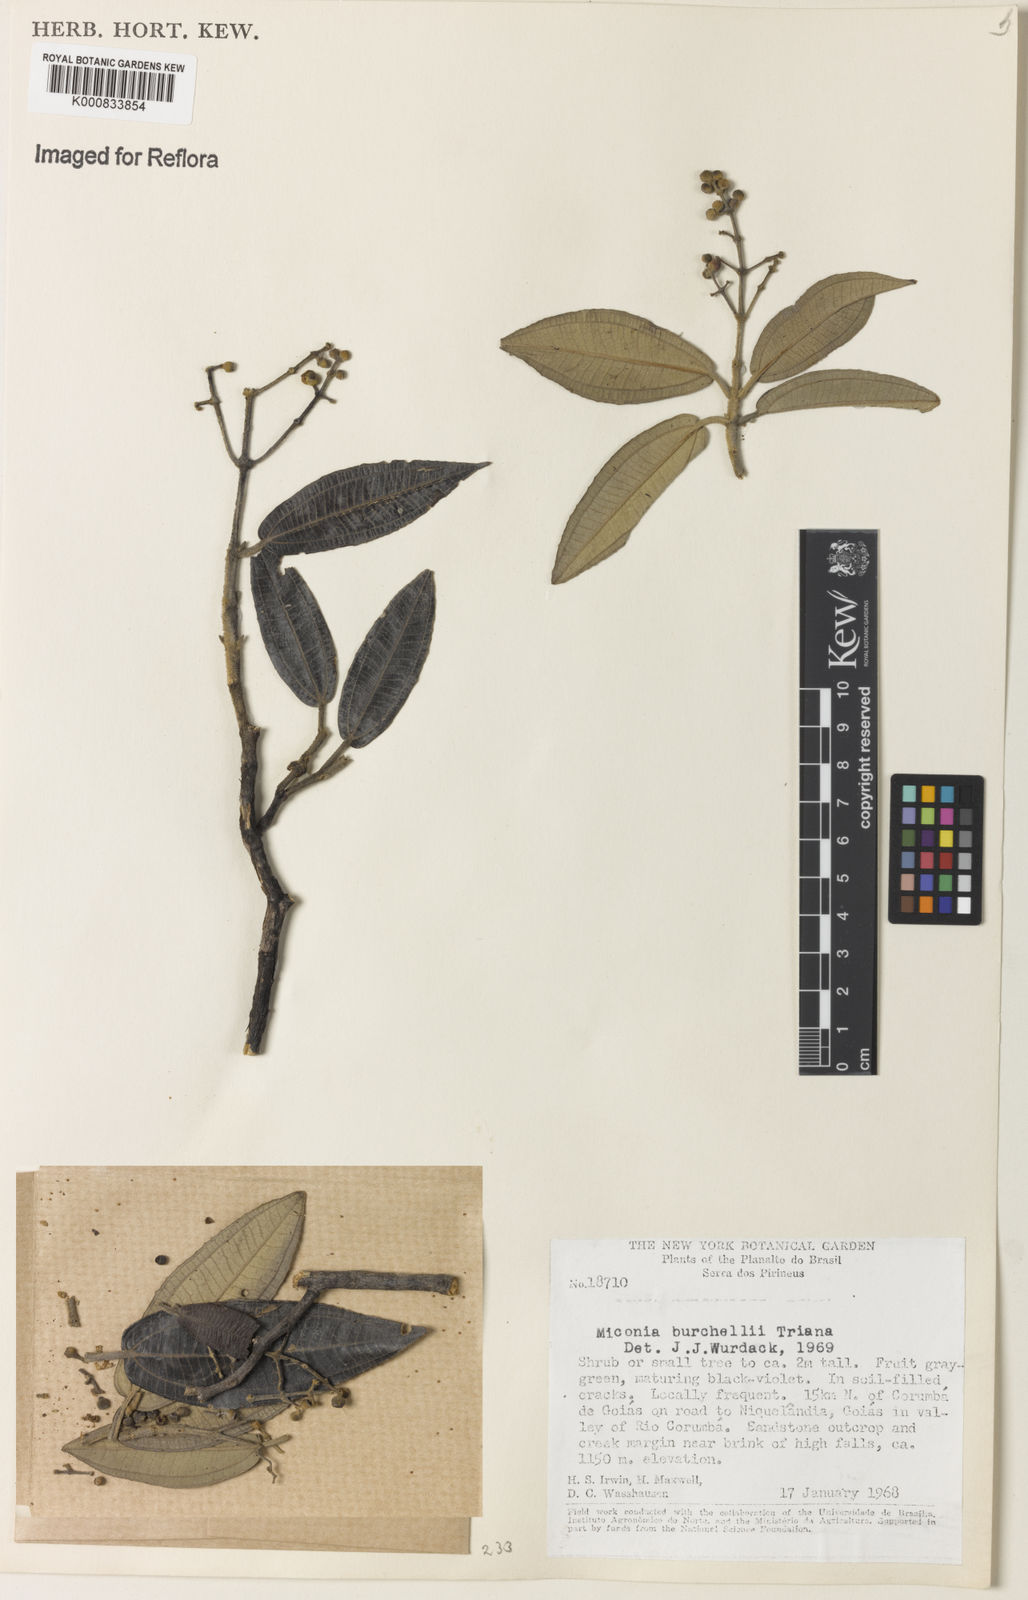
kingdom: Plantae
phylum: Tracheophyta
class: Magnoliopsida
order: Myrtales
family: Melastomataceae
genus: Miconia
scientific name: Miconia burchellii
